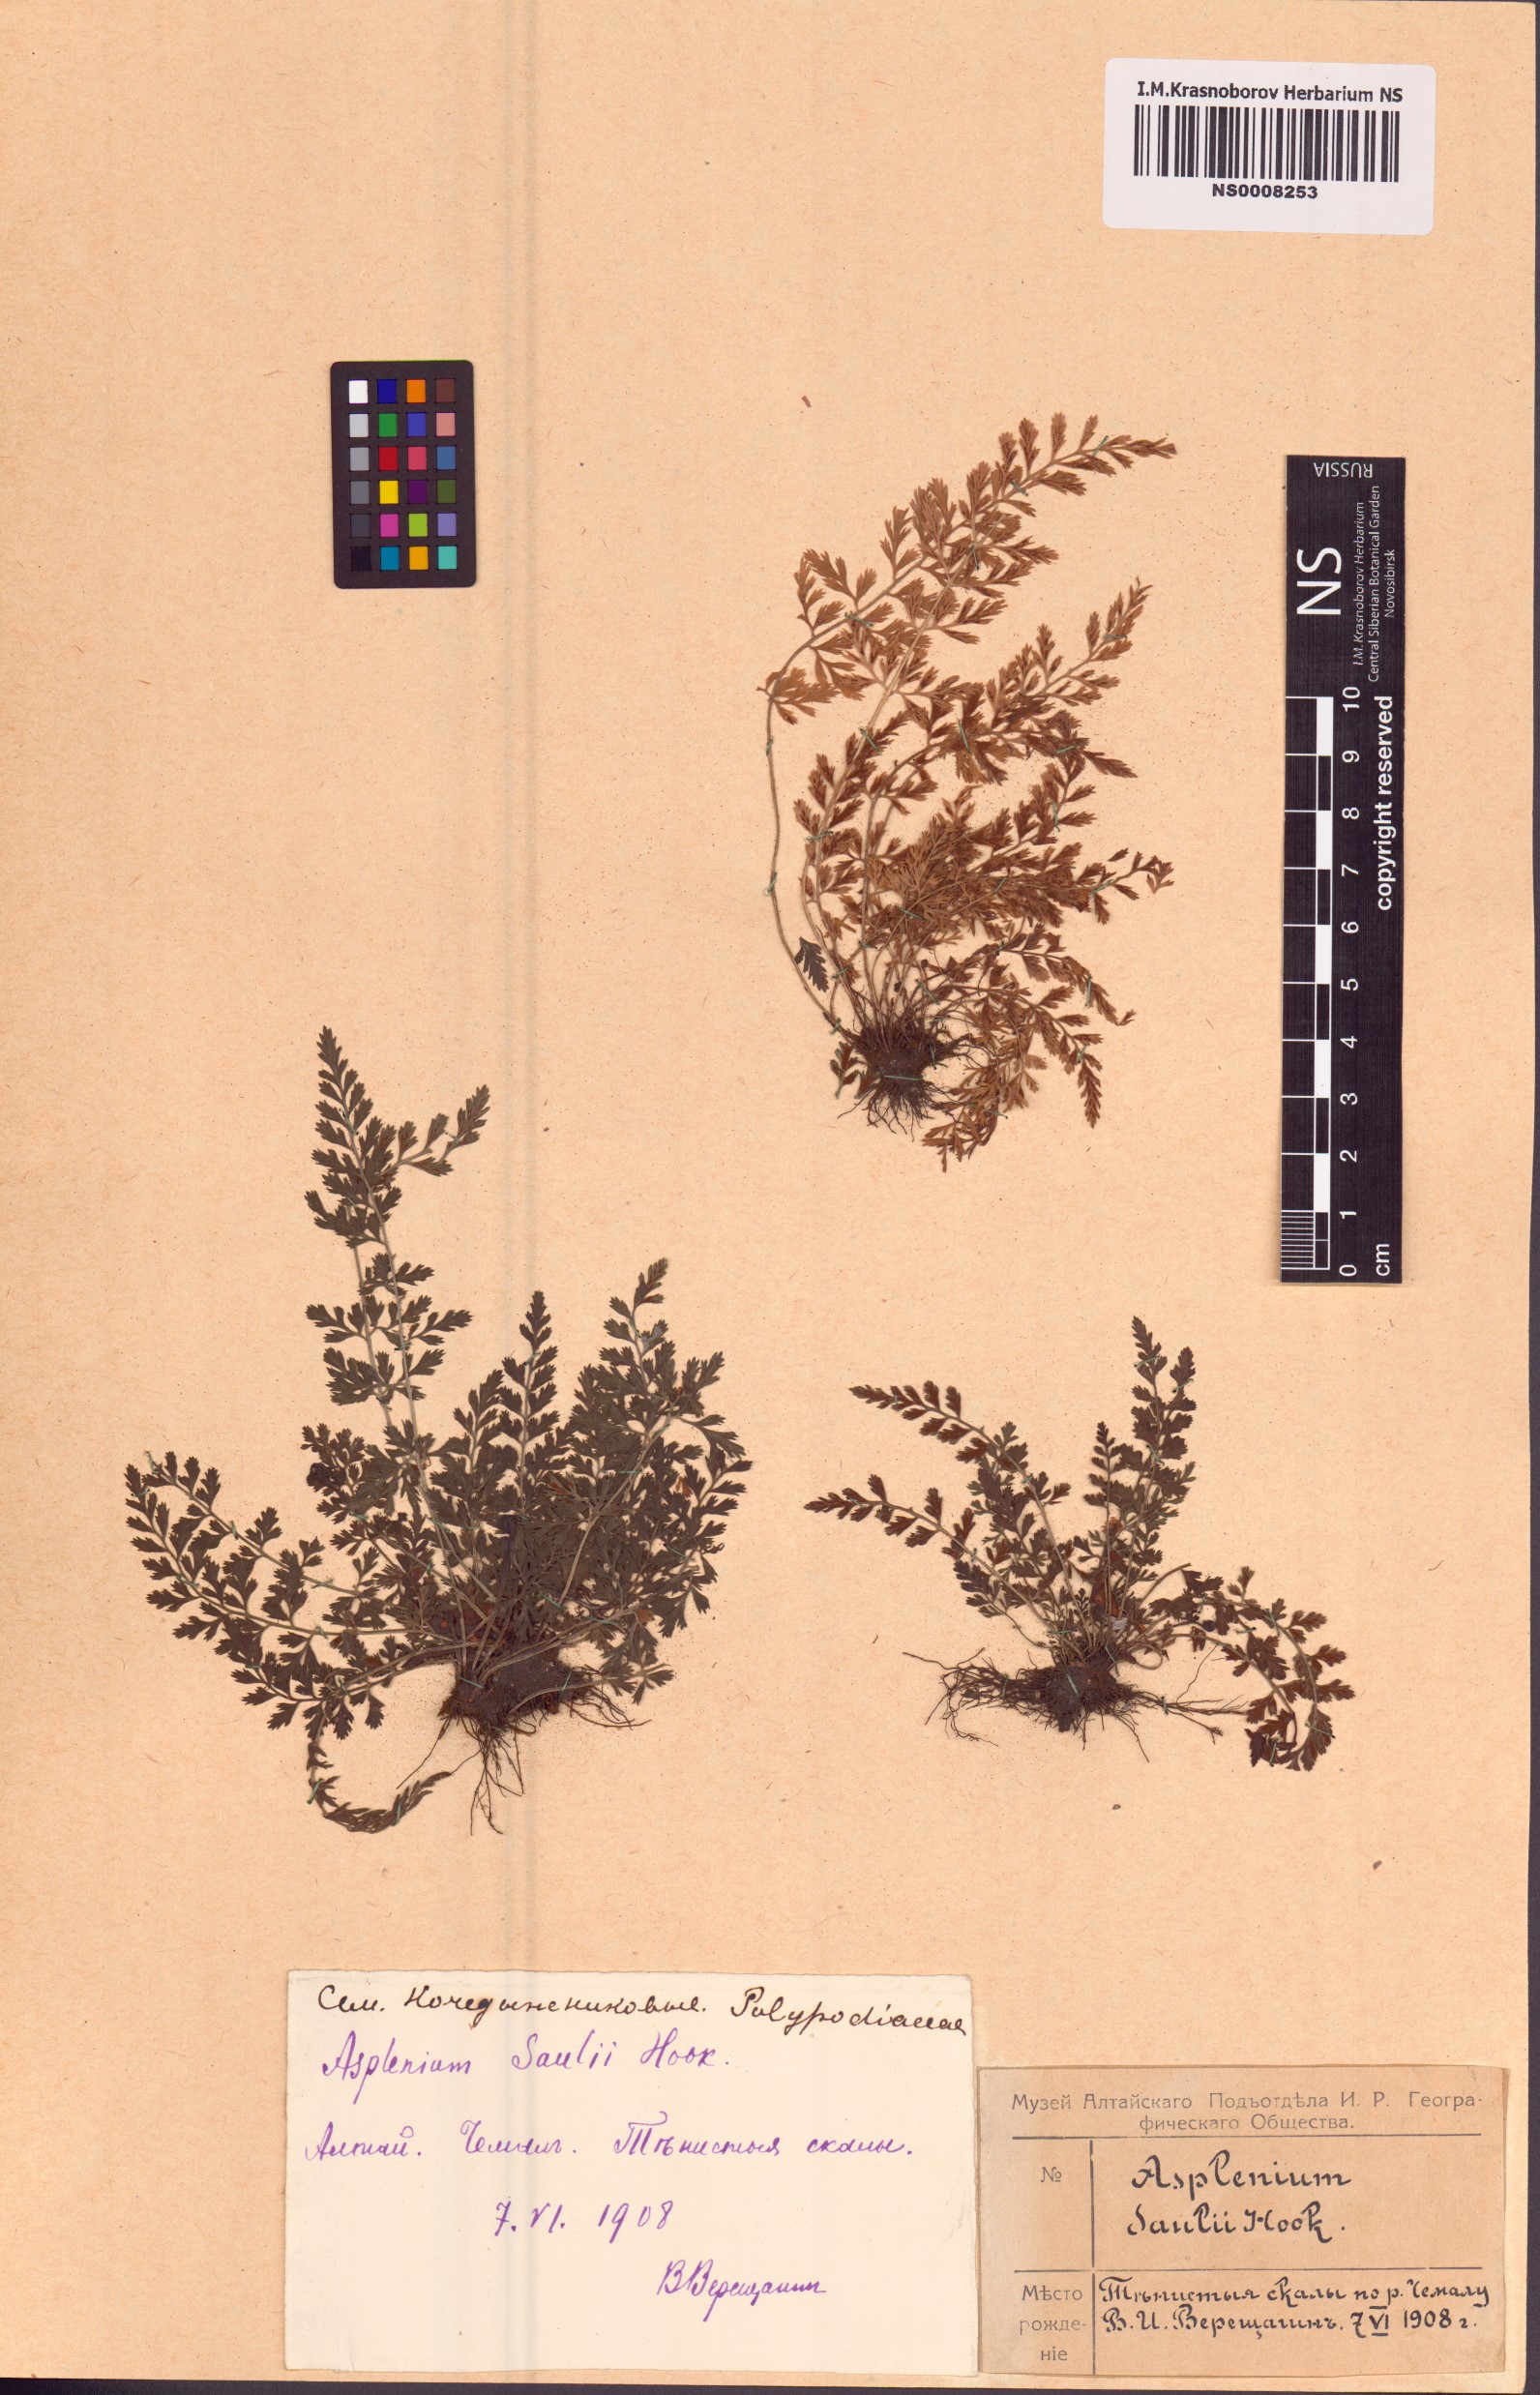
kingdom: Plantae
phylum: Tracheophyta
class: Polypodiopsida
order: Polypodiales
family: Aspleniaceae
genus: Asplenium
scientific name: Asplenium sarelii
